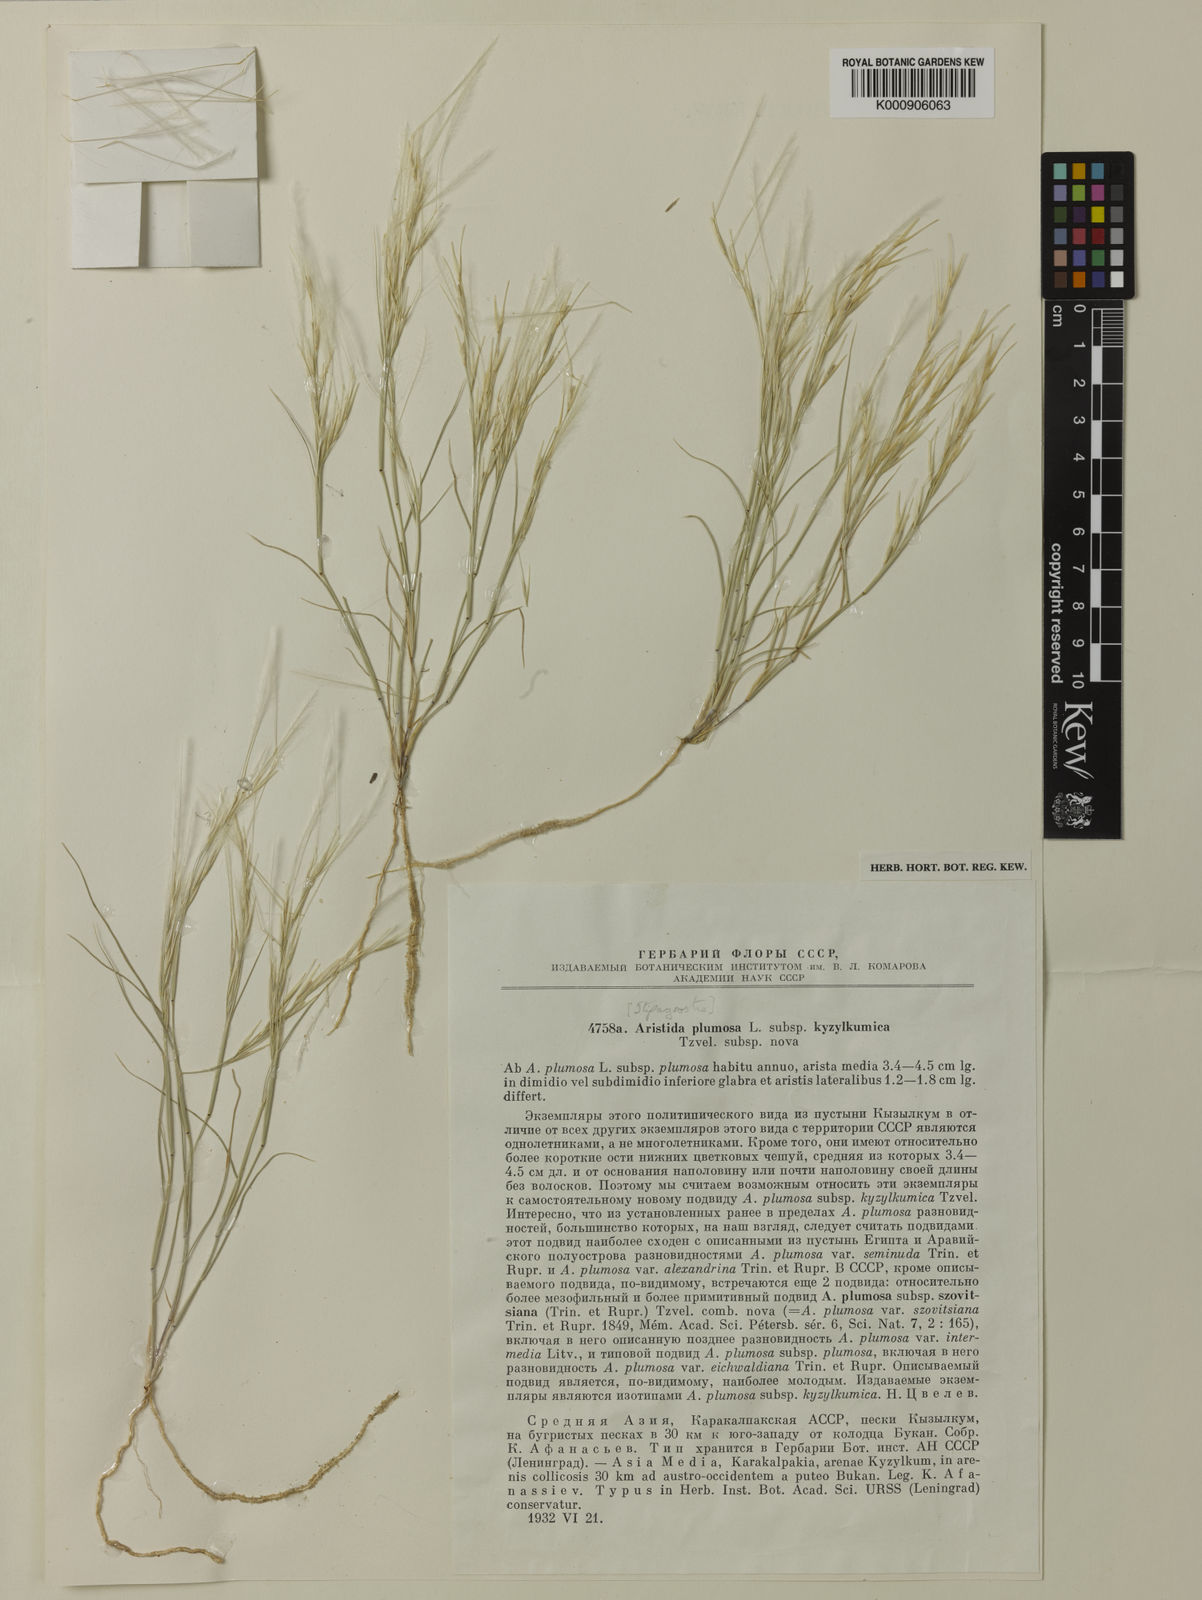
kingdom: Plantae
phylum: Tracheophyta
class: Liliopsida
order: Poales
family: Poaceae
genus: Stipagrostis
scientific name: Stipagrostis plumosa
